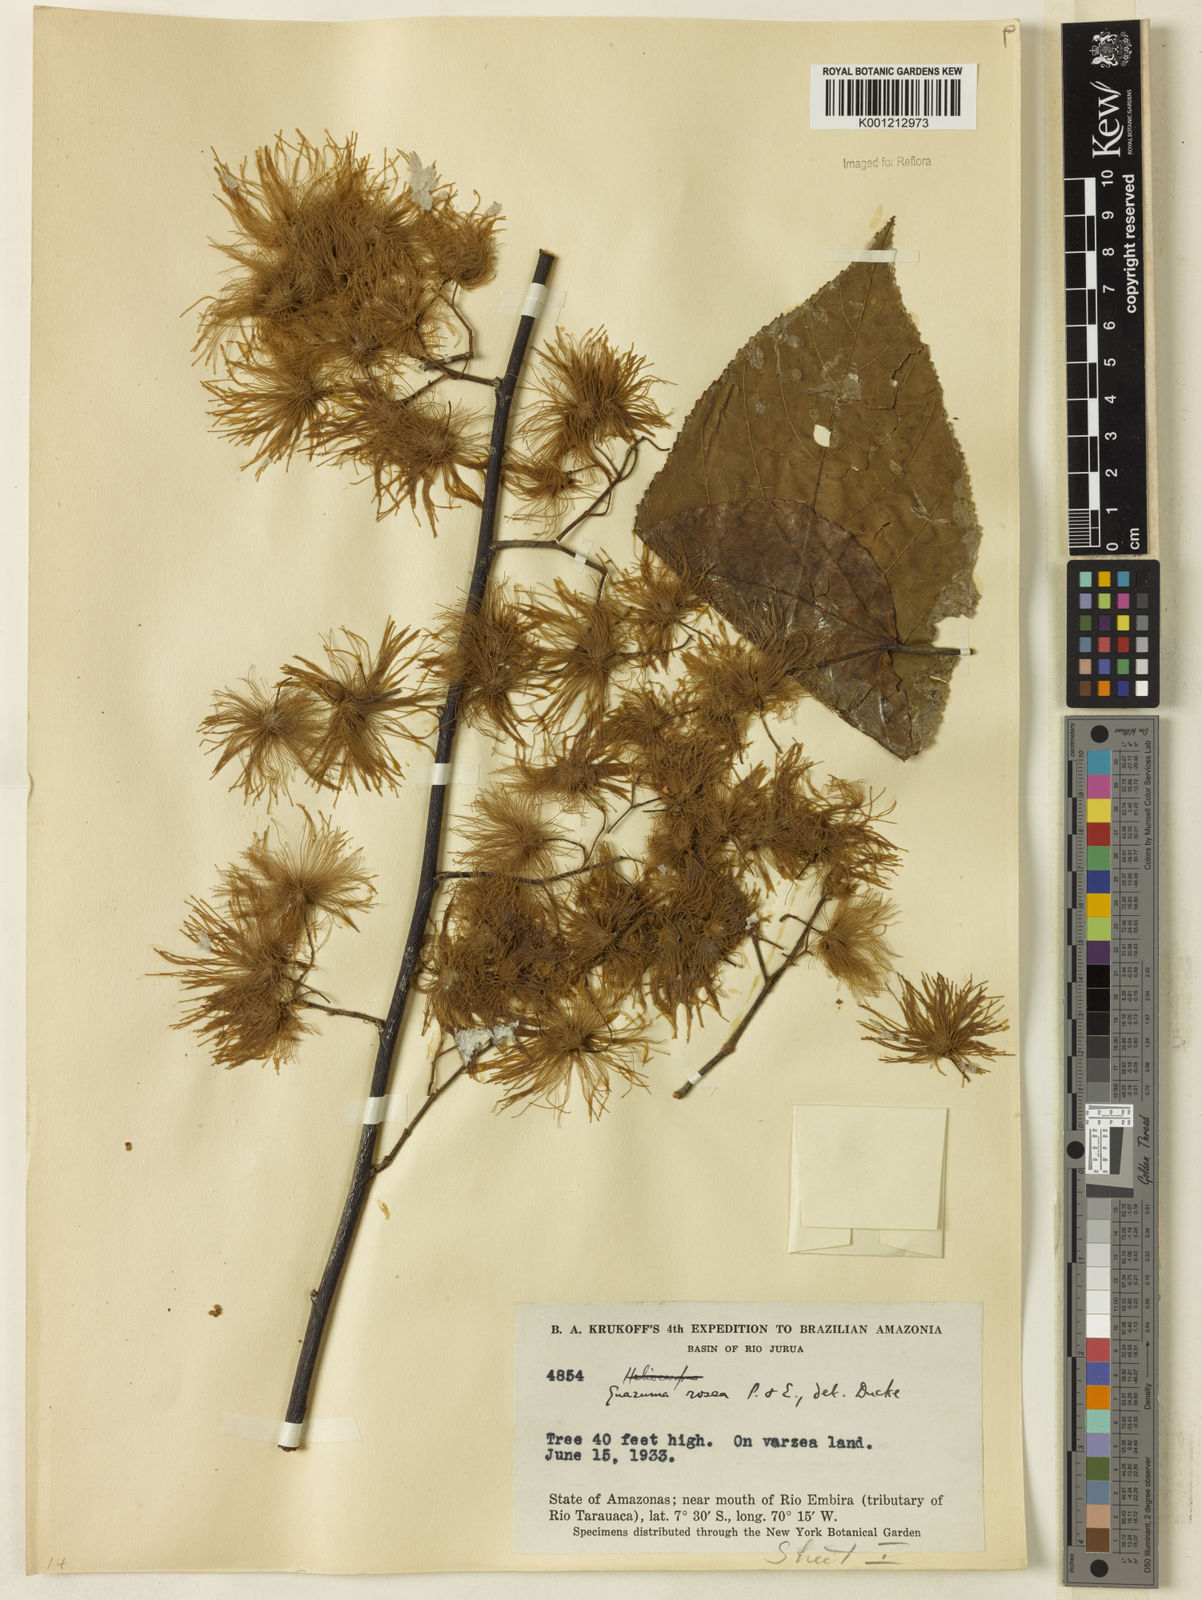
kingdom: Plantae
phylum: Tracheophyta
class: Magnoliopsida
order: Malvales
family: Malvaceae
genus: Guazuma
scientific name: Guazuma crinita
